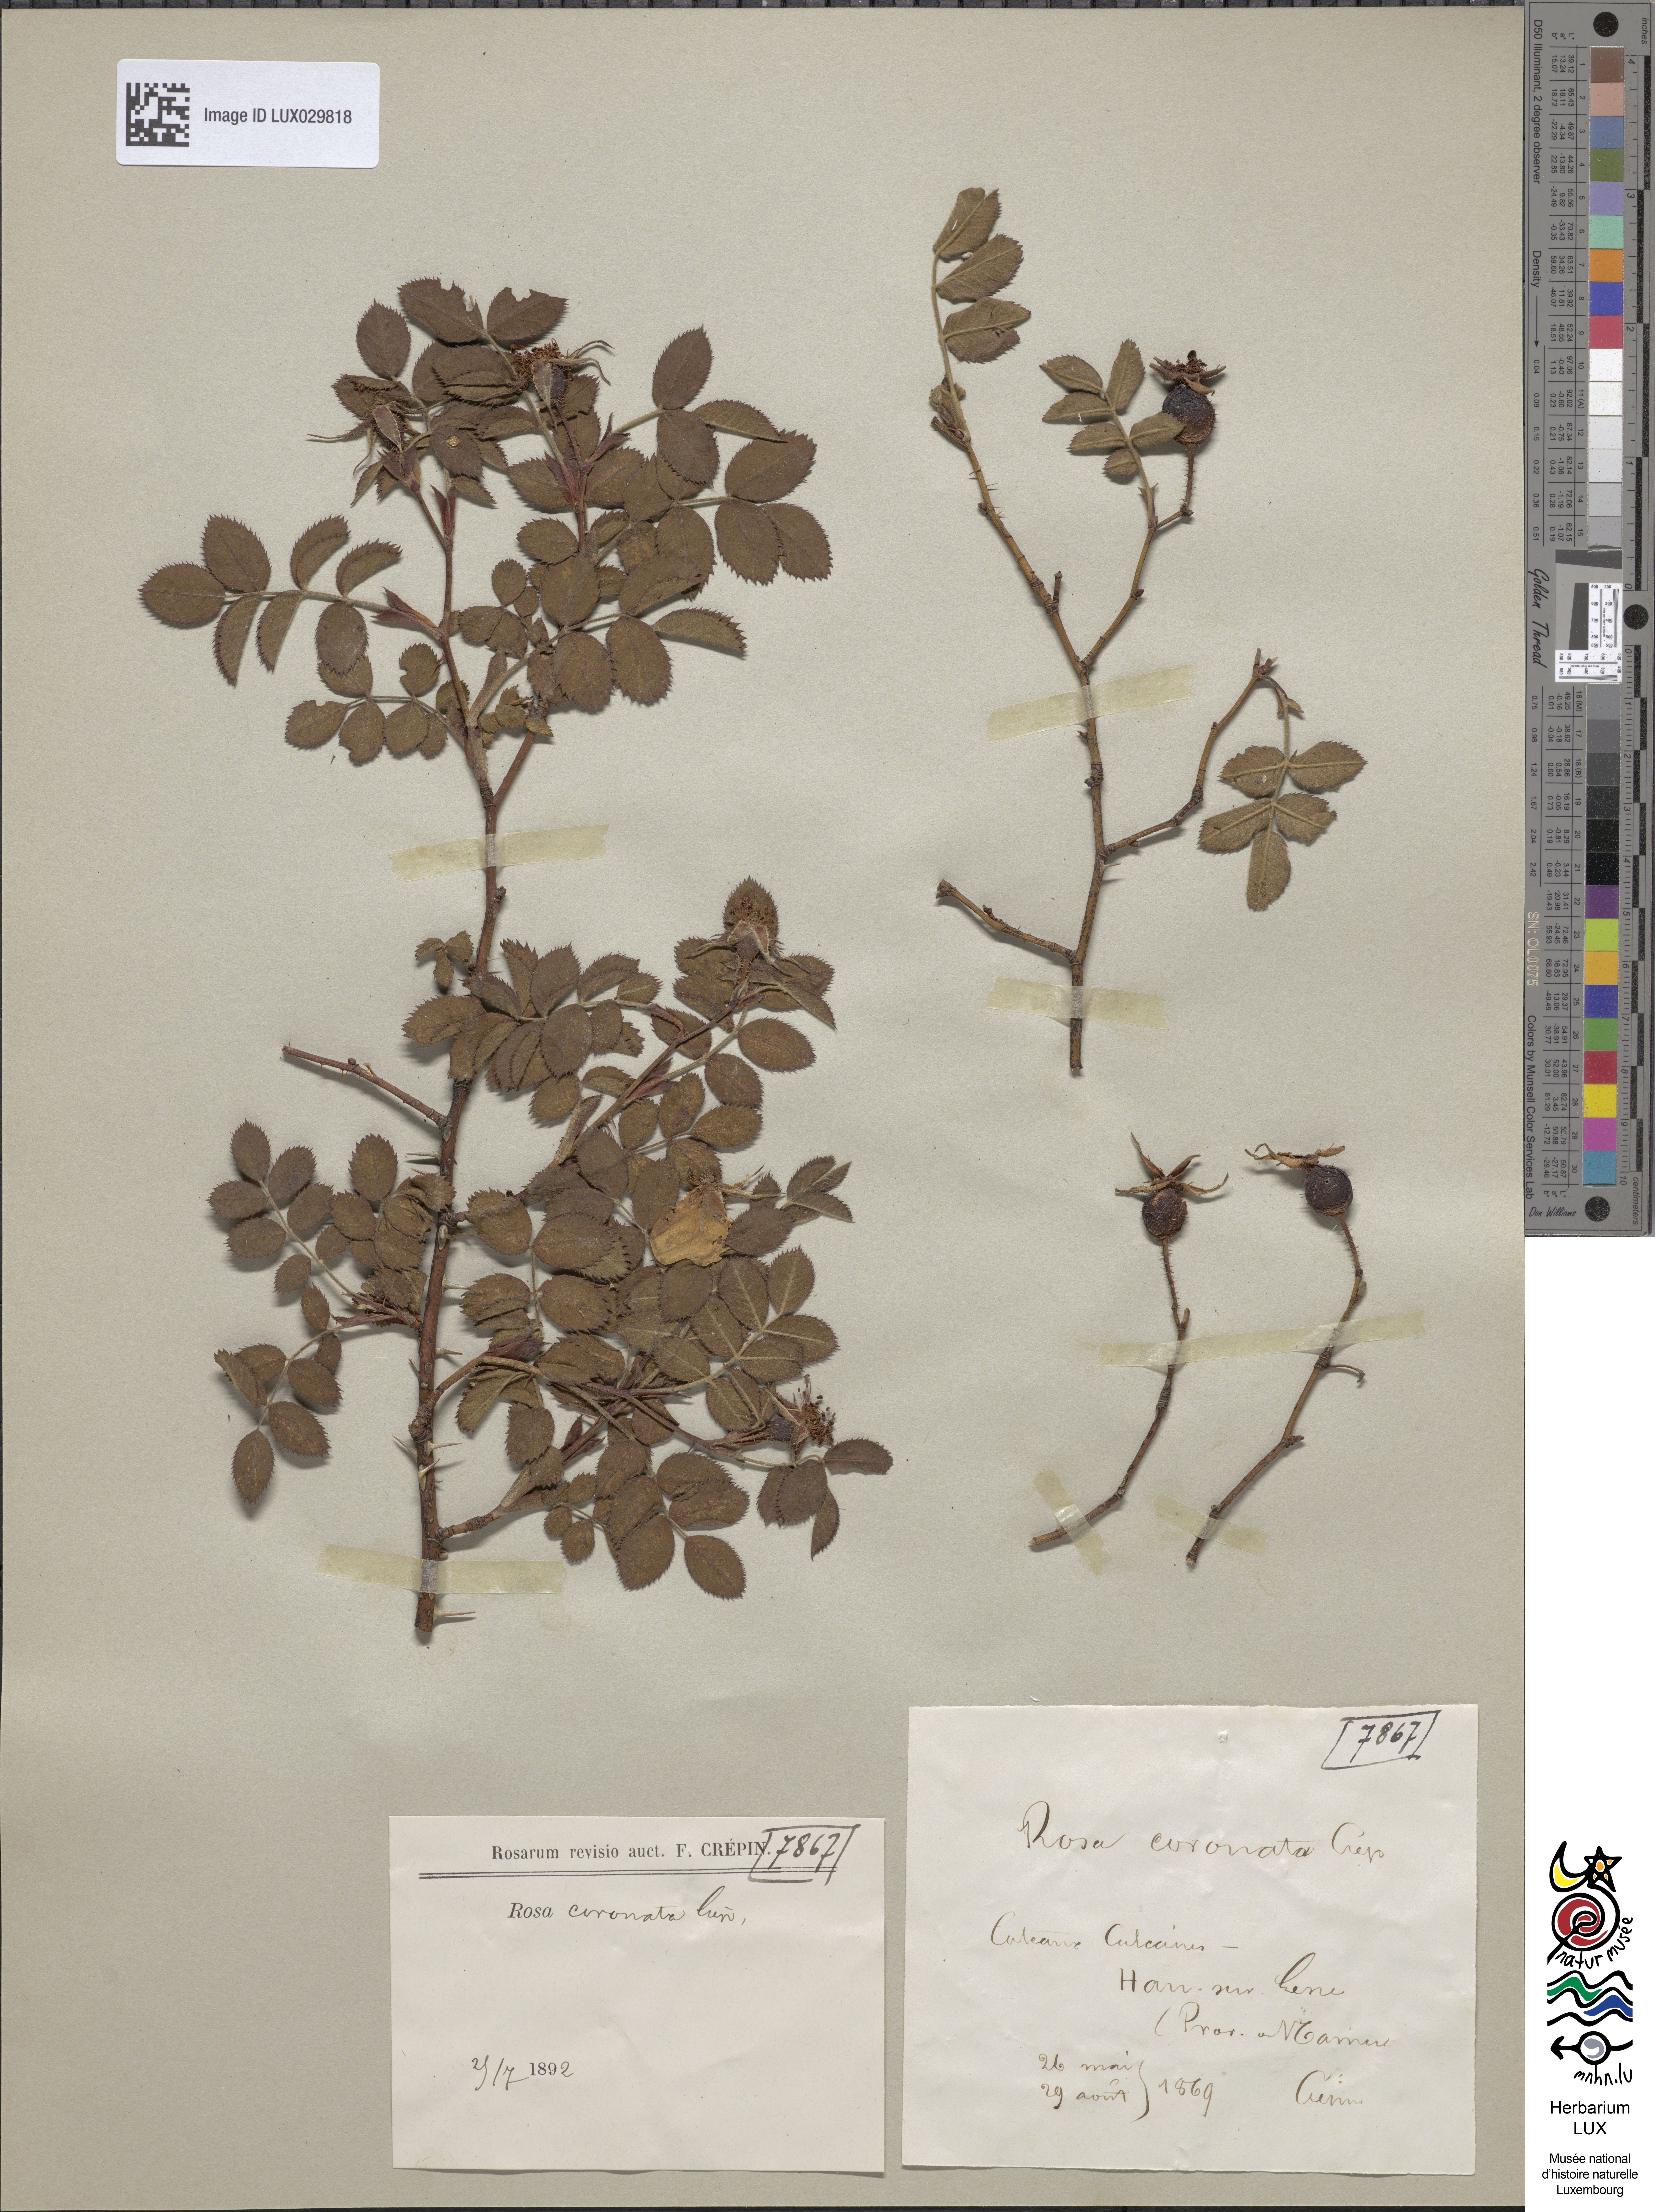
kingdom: Plantae
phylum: Tracheophyta
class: Magnoliopsida
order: Rosales
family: Rosaceae
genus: Rosa
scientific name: Rosa coronata
